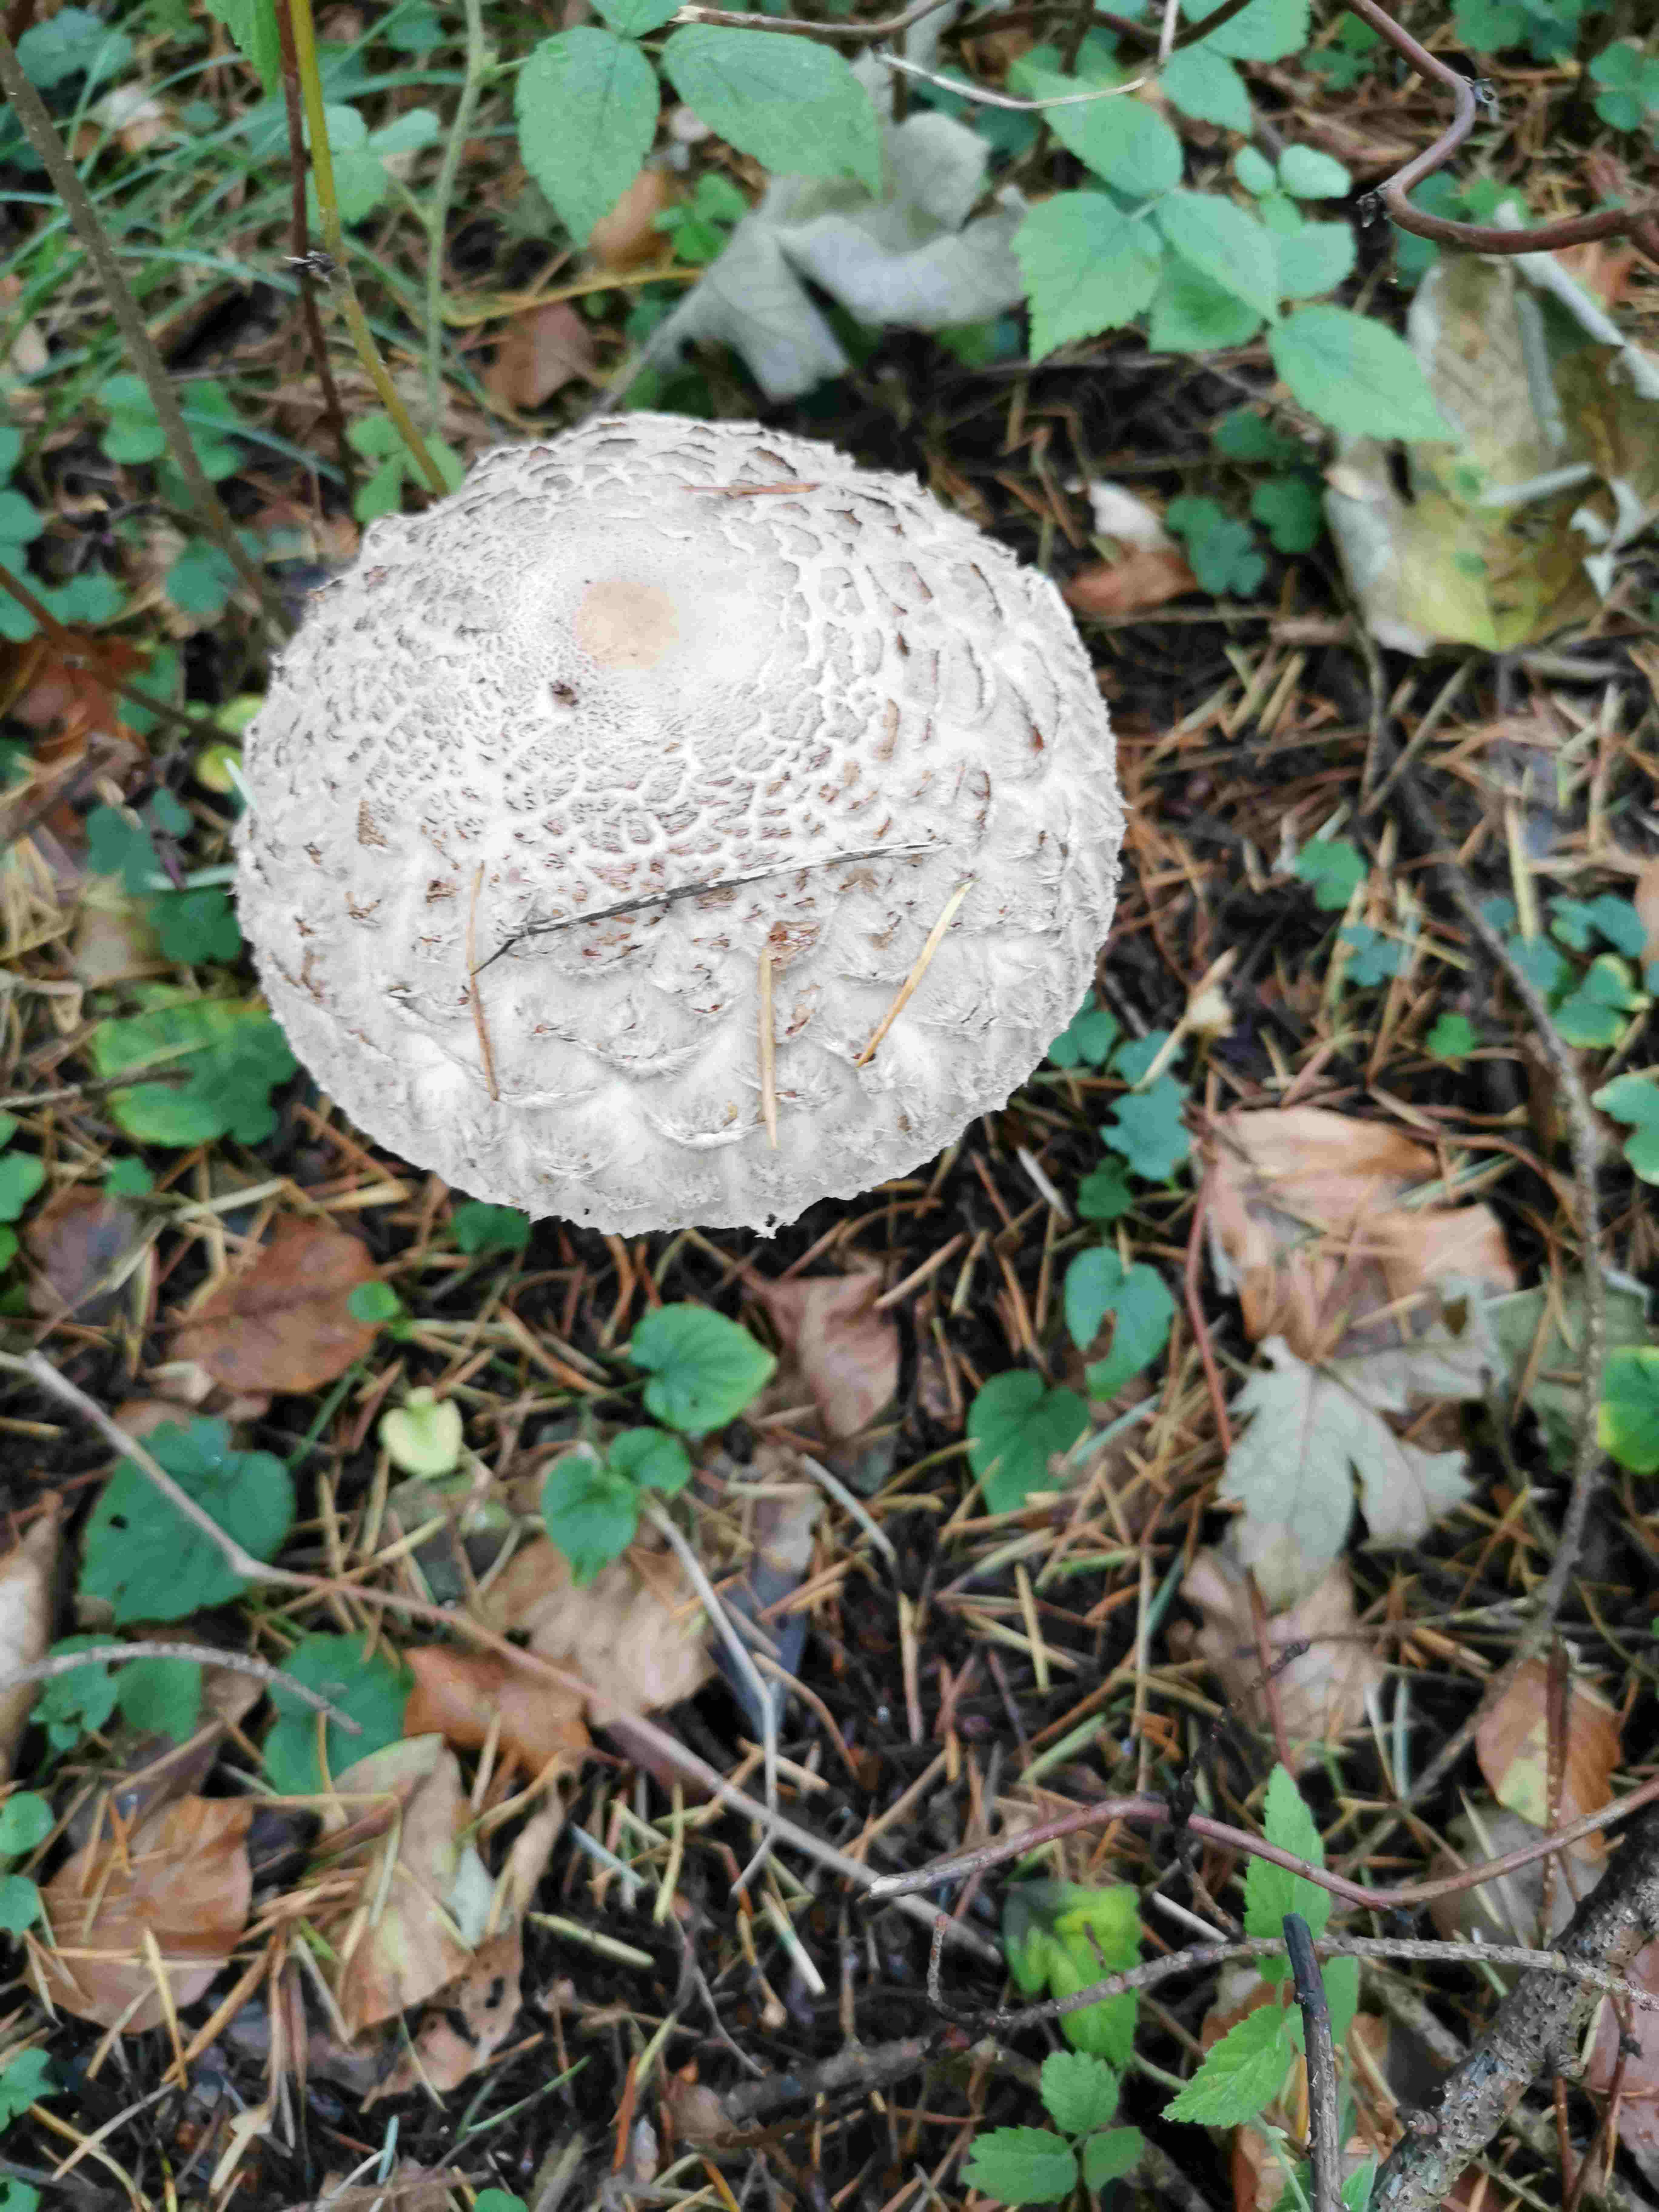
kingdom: Fungi
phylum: Basidiomycota
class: Agaricomycetes
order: Agaricales
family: Agaricaceae
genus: Chlorophyllum
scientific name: Chlorophyllum olivieri
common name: almindelig rabarberhat
